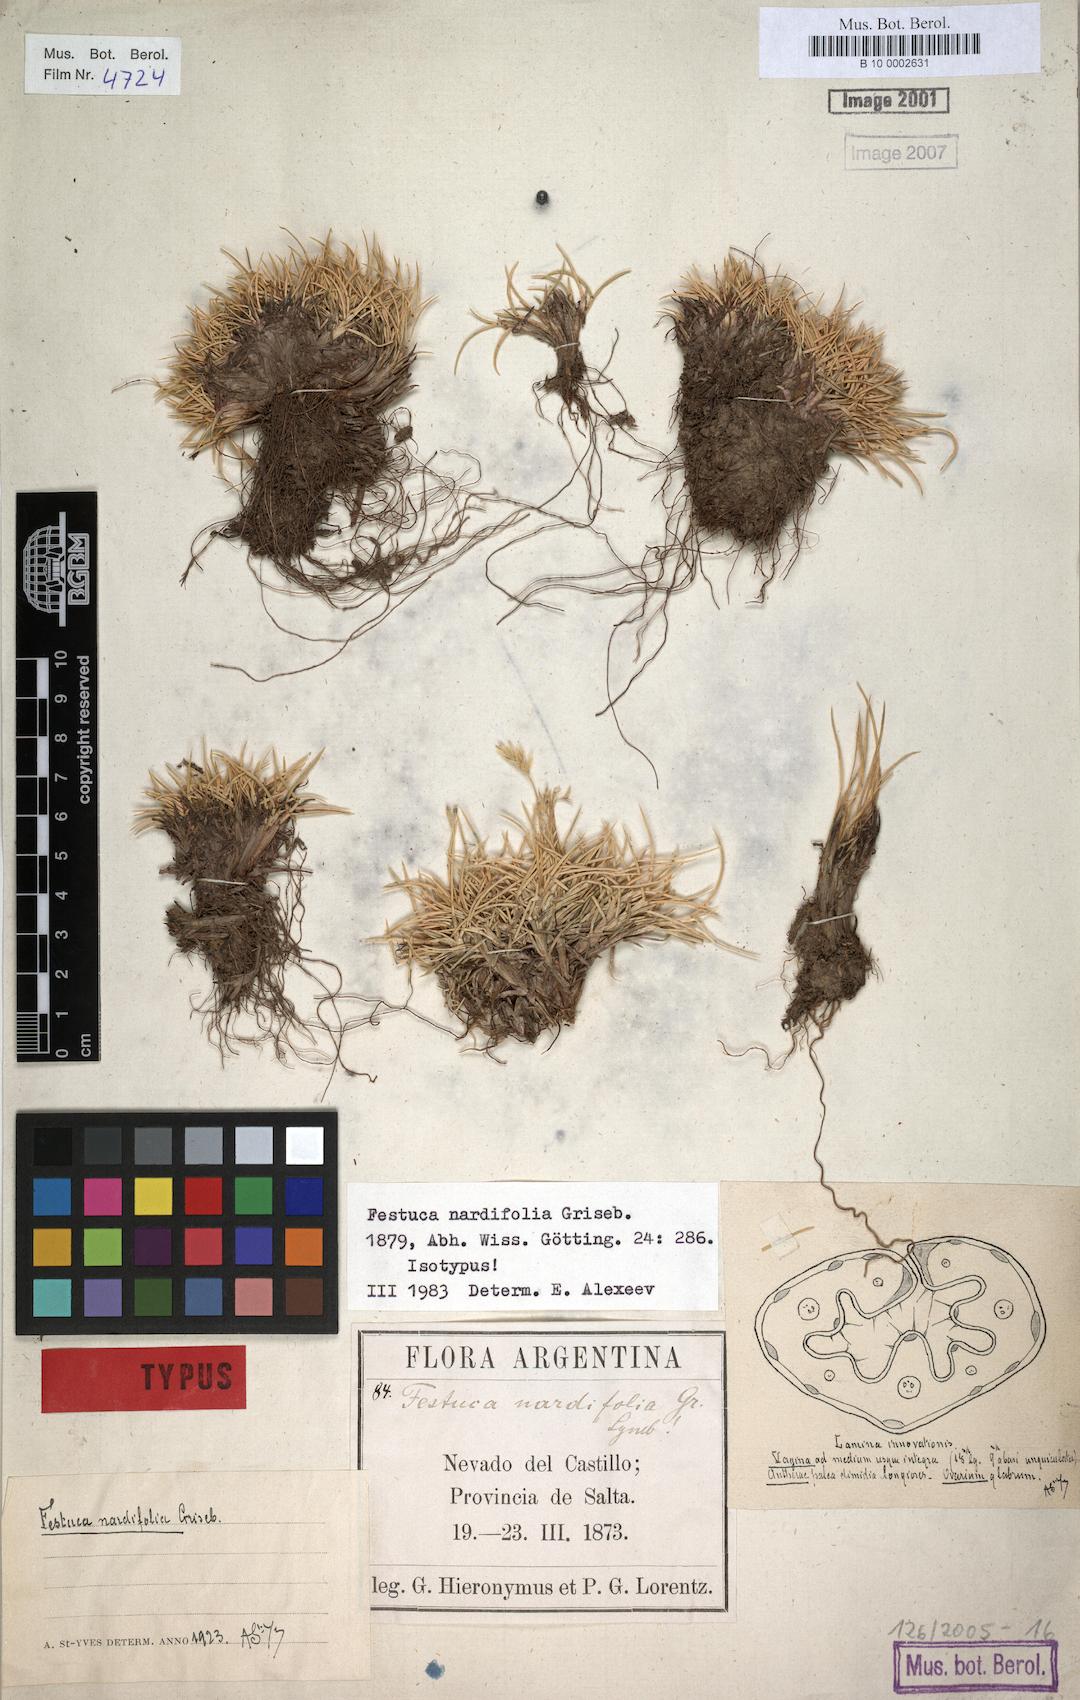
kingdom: Plantae
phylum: Tracheophyta
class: Liliopsida
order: Poales
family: Poaceae
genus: Festuca
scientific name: Festuca nardifolia
